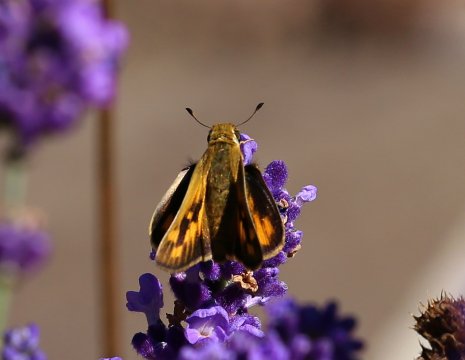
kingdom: Animalia
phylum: Arthropoda
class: Insecta
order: Lepidoptera
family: Hesperiidae
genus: Hylephila
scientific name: Hylephila phyleus
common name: Fiery Skipper
